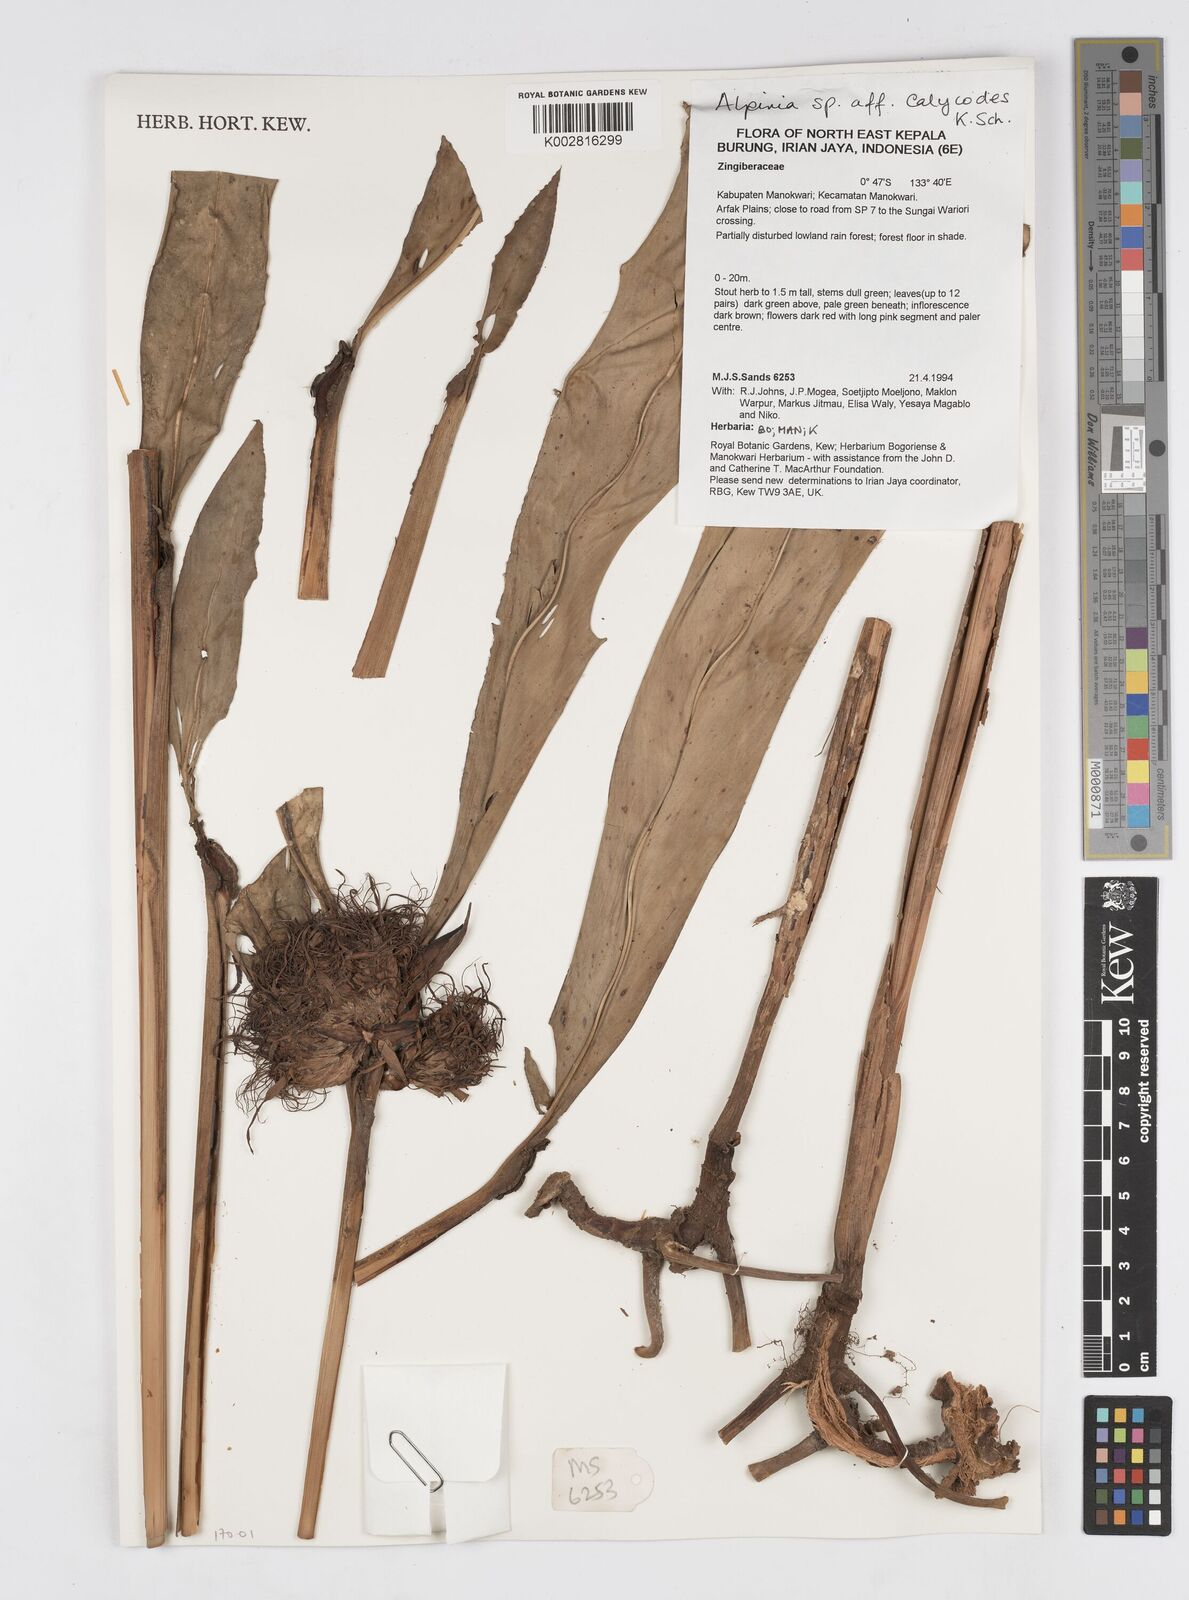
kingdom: Plantae
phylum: Tracheophyta
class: Liliopsida
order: Zingiberales
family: Zingiberaceae
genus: Alpinia
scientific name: Alpinia calycodes
